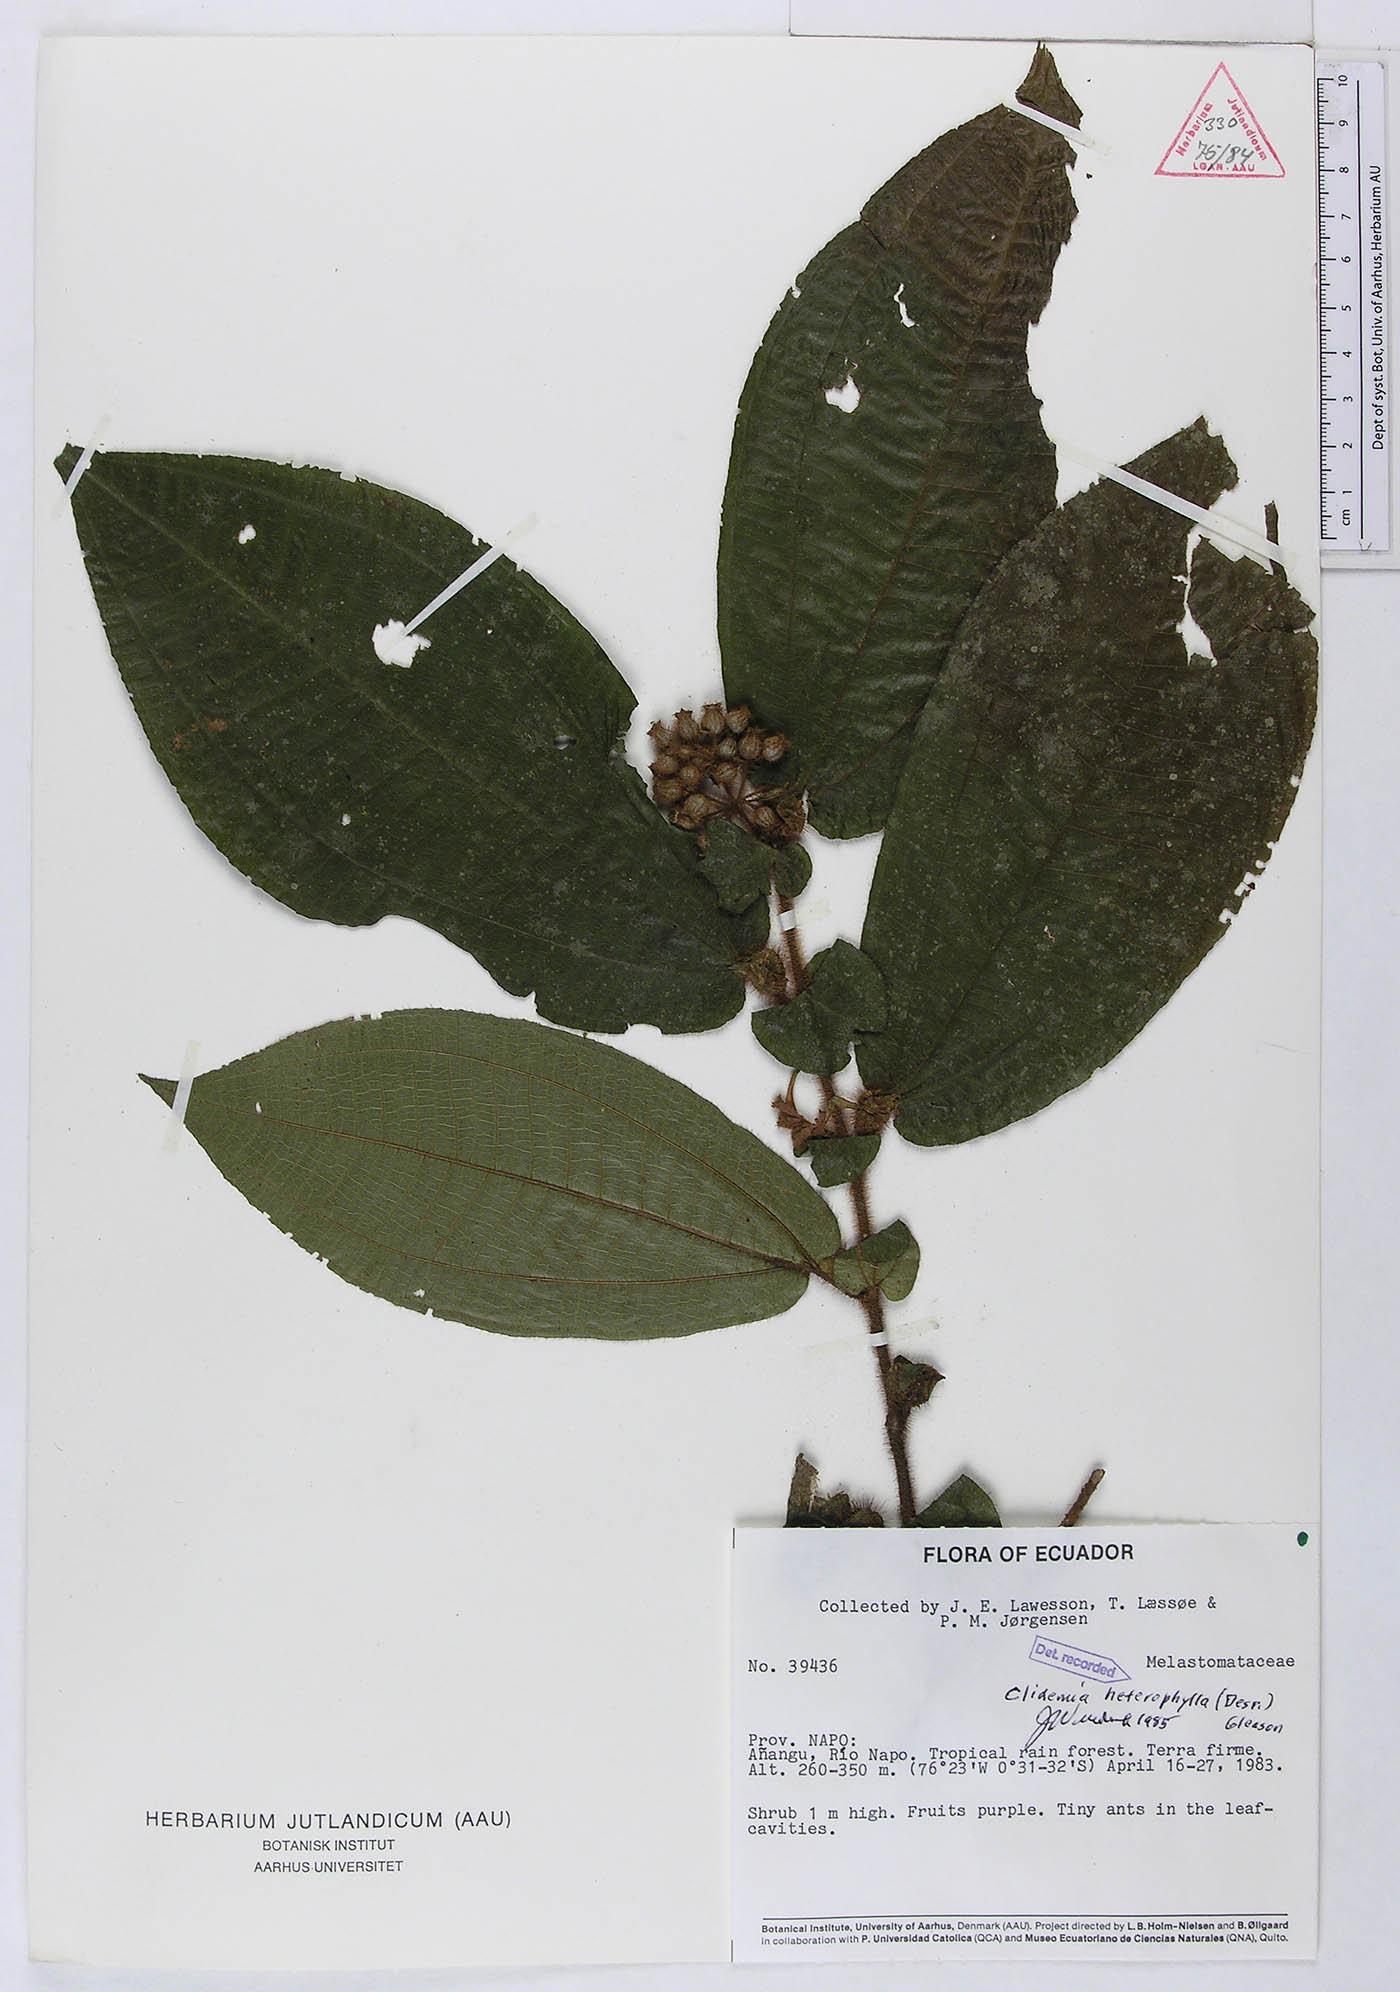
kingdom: Plantae
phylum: Tracheophyta
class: Magnoliopsida
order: Myrtales
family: Melastomataceae
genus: Miconia
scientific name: Miconia formicoheterophylla
